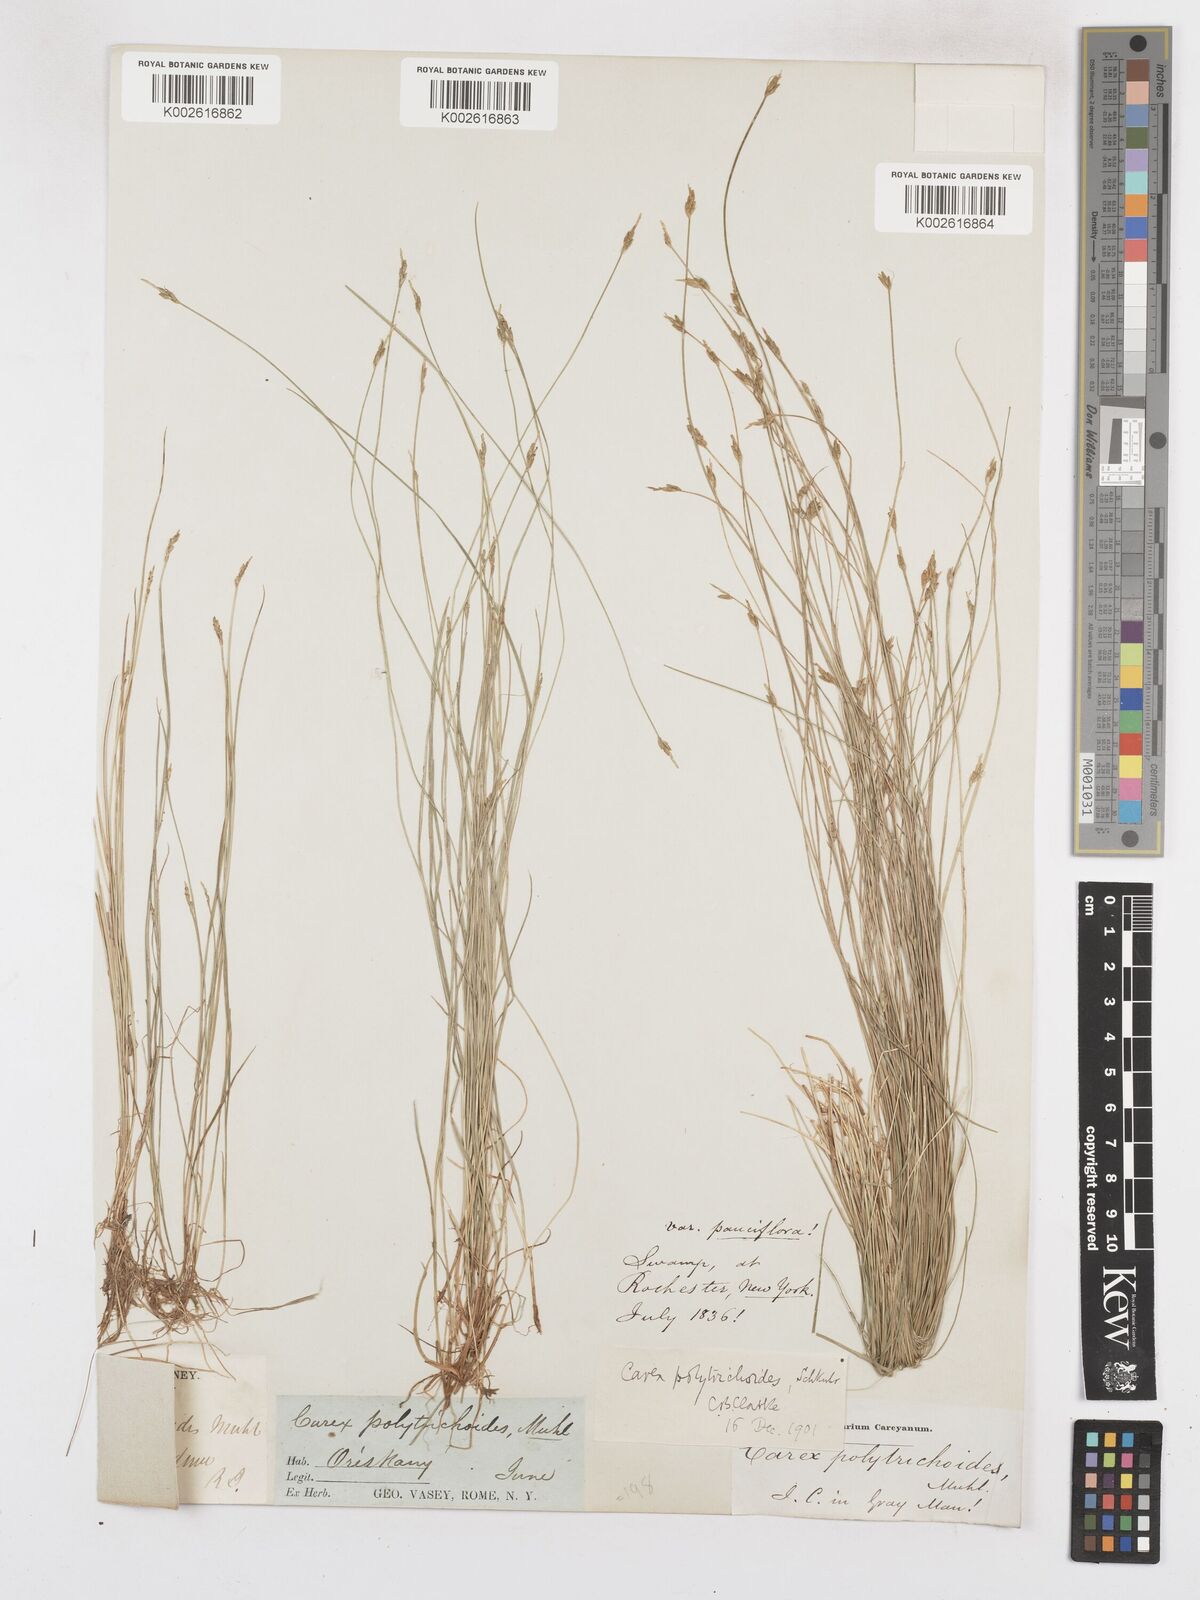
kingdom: Plantae
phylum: Tracheophyta
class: Liliopsida
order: Poales
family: Cyperaceae
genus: Carex
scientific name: Carex leptalea
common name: Bristly-stalked sedge
